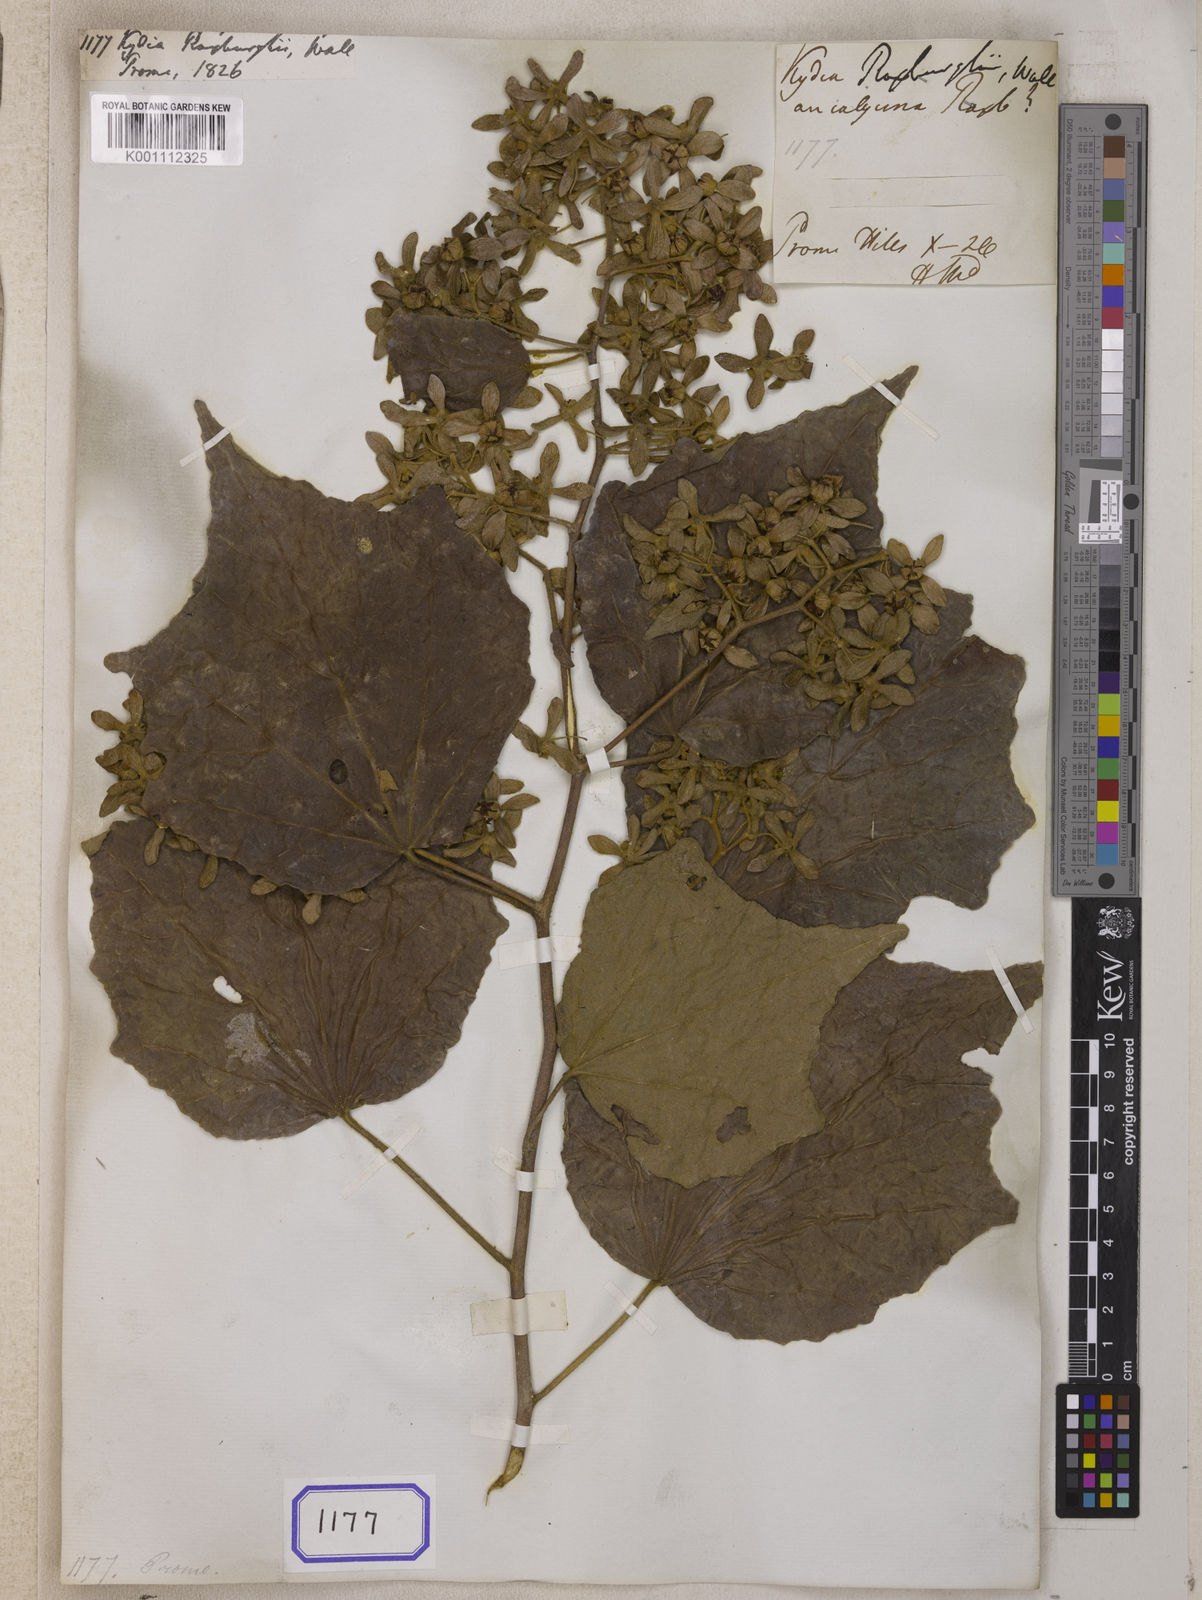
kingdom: Plantae
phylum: Tracheophyta
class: Magnoliopsida
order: Malvales
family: Malvaceae
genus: Kydia
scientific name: Kydia
